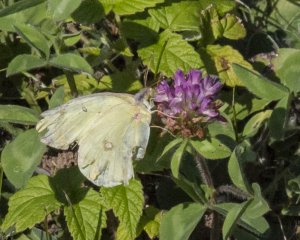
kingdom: Animalia
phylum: Arthropoda
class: Insecta
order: Lepidoptera
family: Pieridae
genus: Colias
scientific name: Colias philodice
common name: Clouded Sulphur
